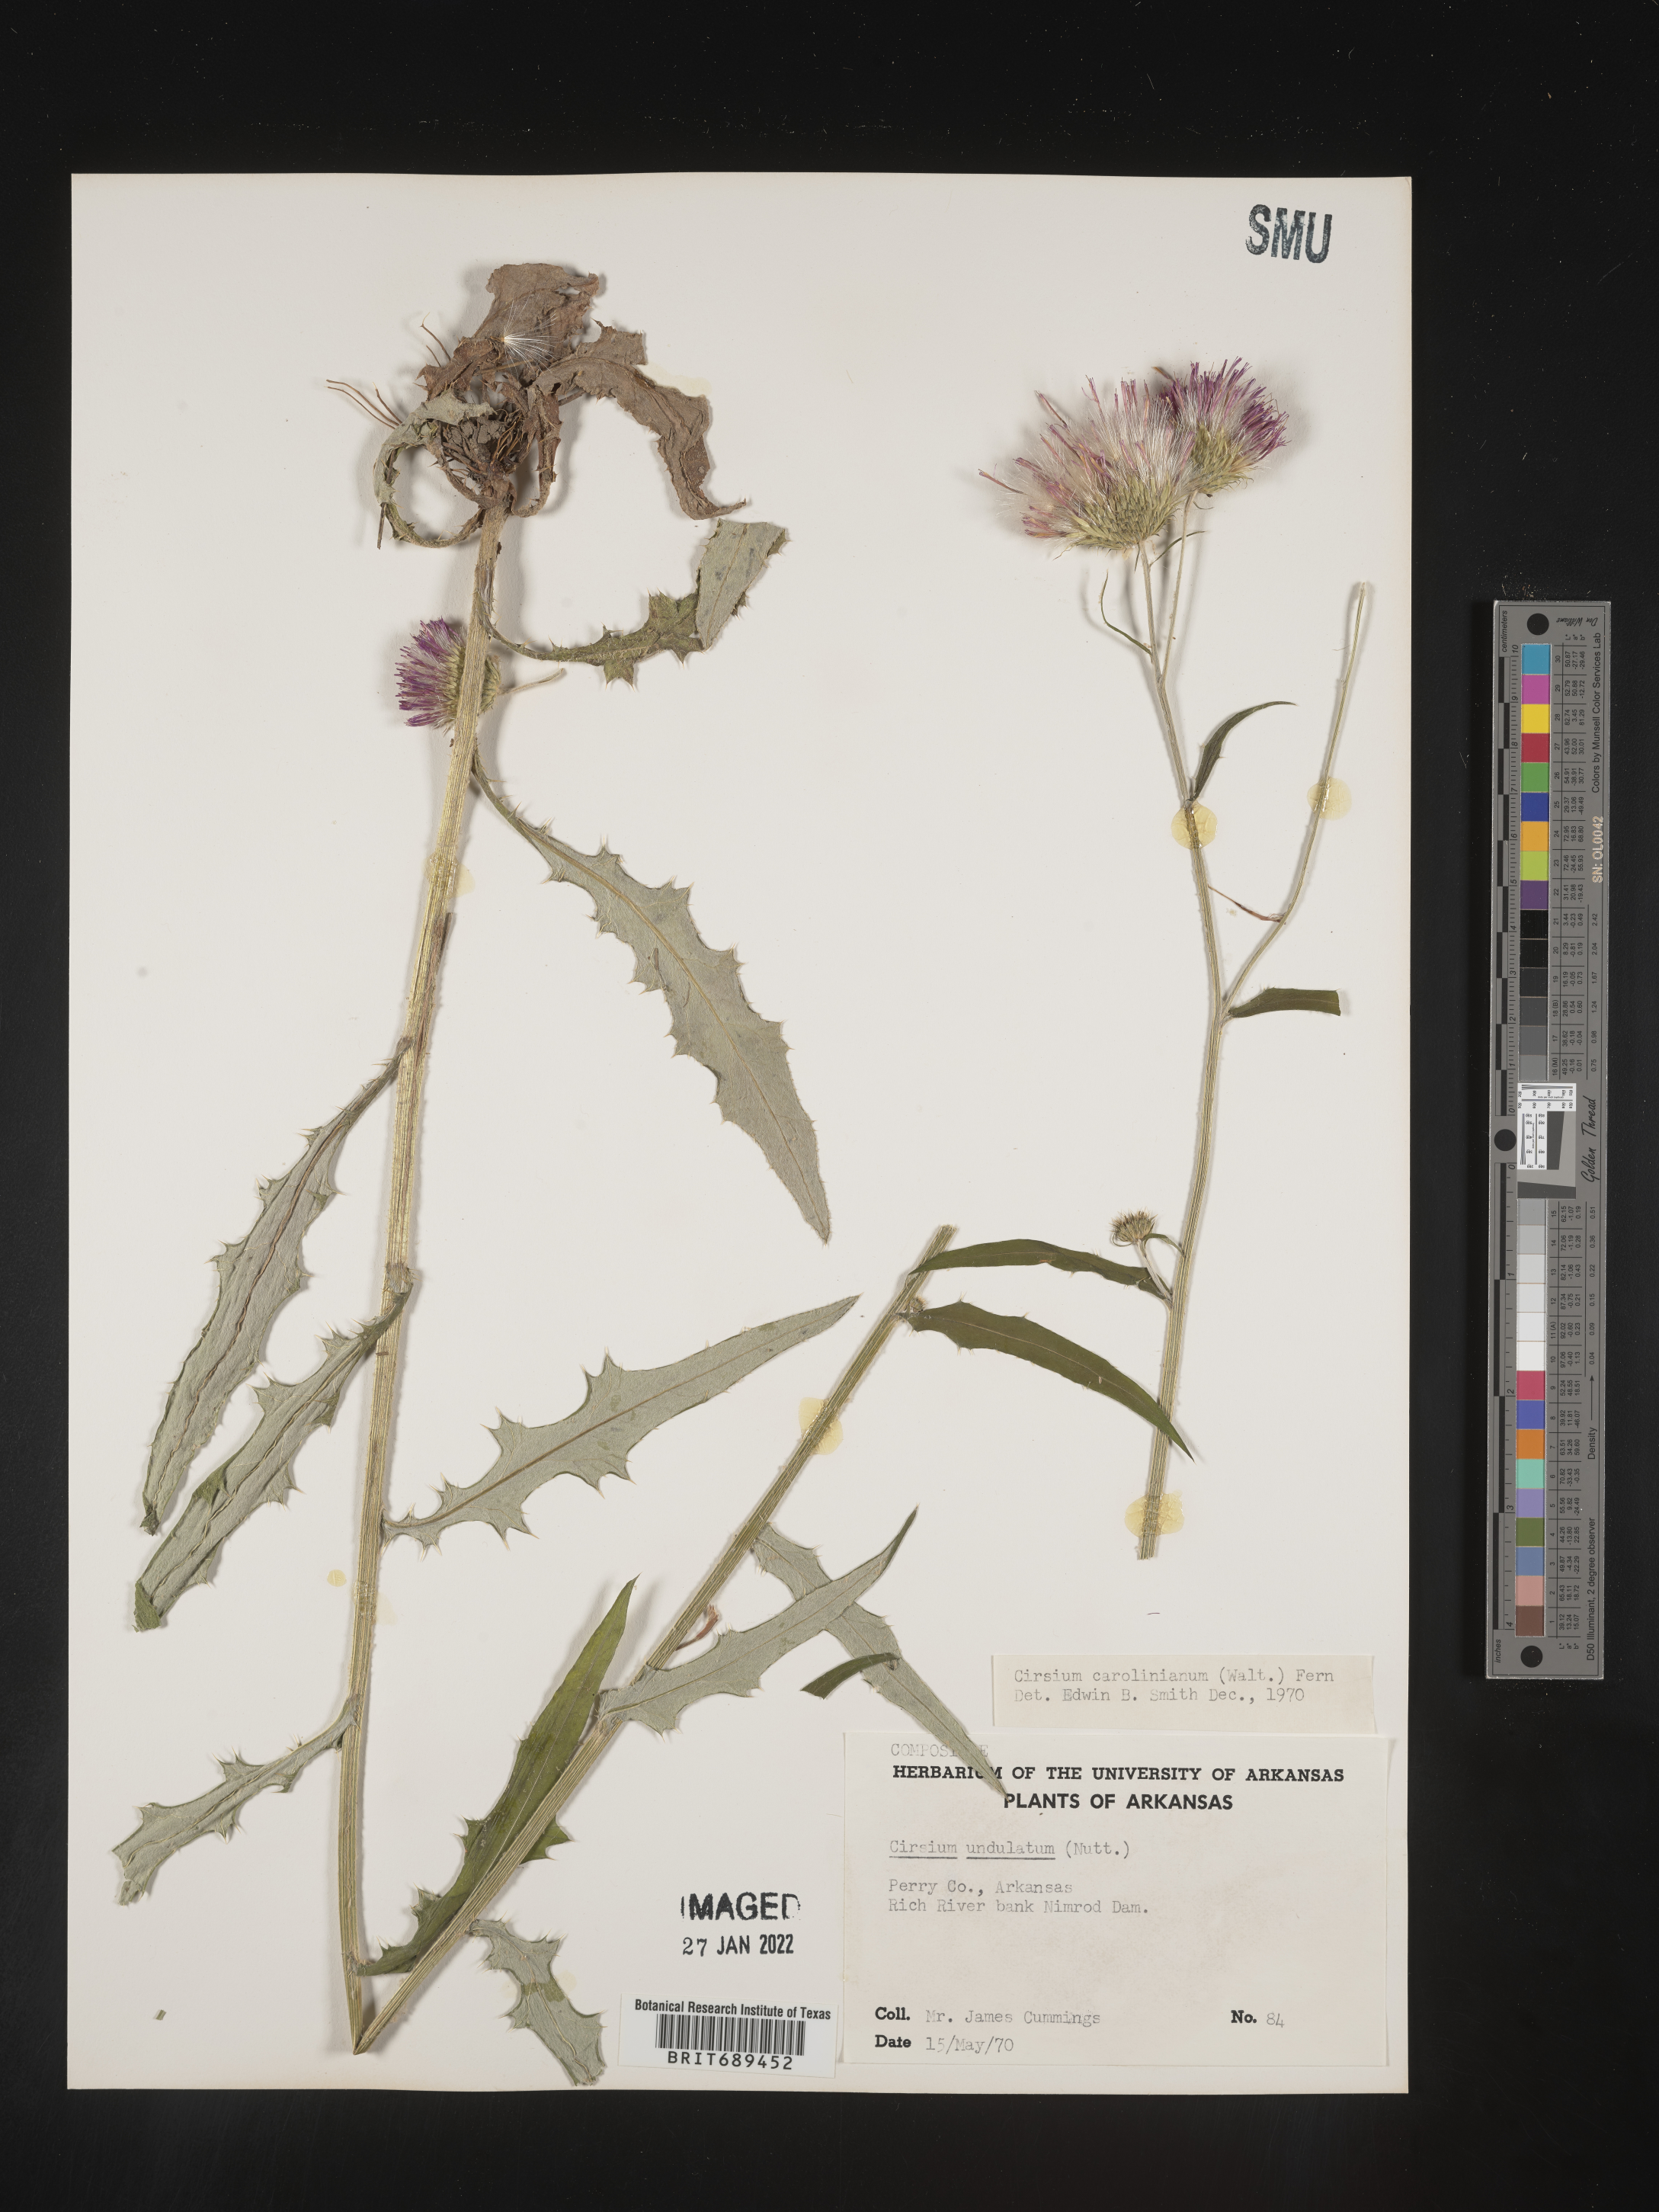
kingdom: Plantae
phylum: Tracheophyta
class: Magnoliopsida
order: Asterales
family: Asteraceae
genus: Cirsium
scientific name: Cirsium carolinianum
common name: Carolina thistle
